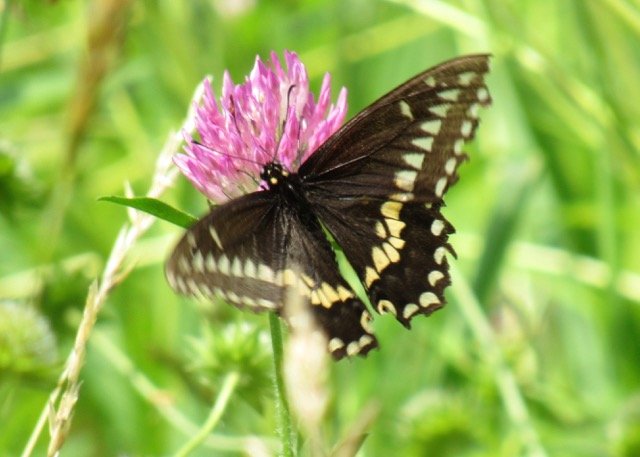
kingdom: Animalia
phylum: Arthropoda
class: Insecta
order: Lepidoptera
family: Papilionidae
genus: Papilio
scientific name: Papilio polyxenes
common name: Black Swallowtail
